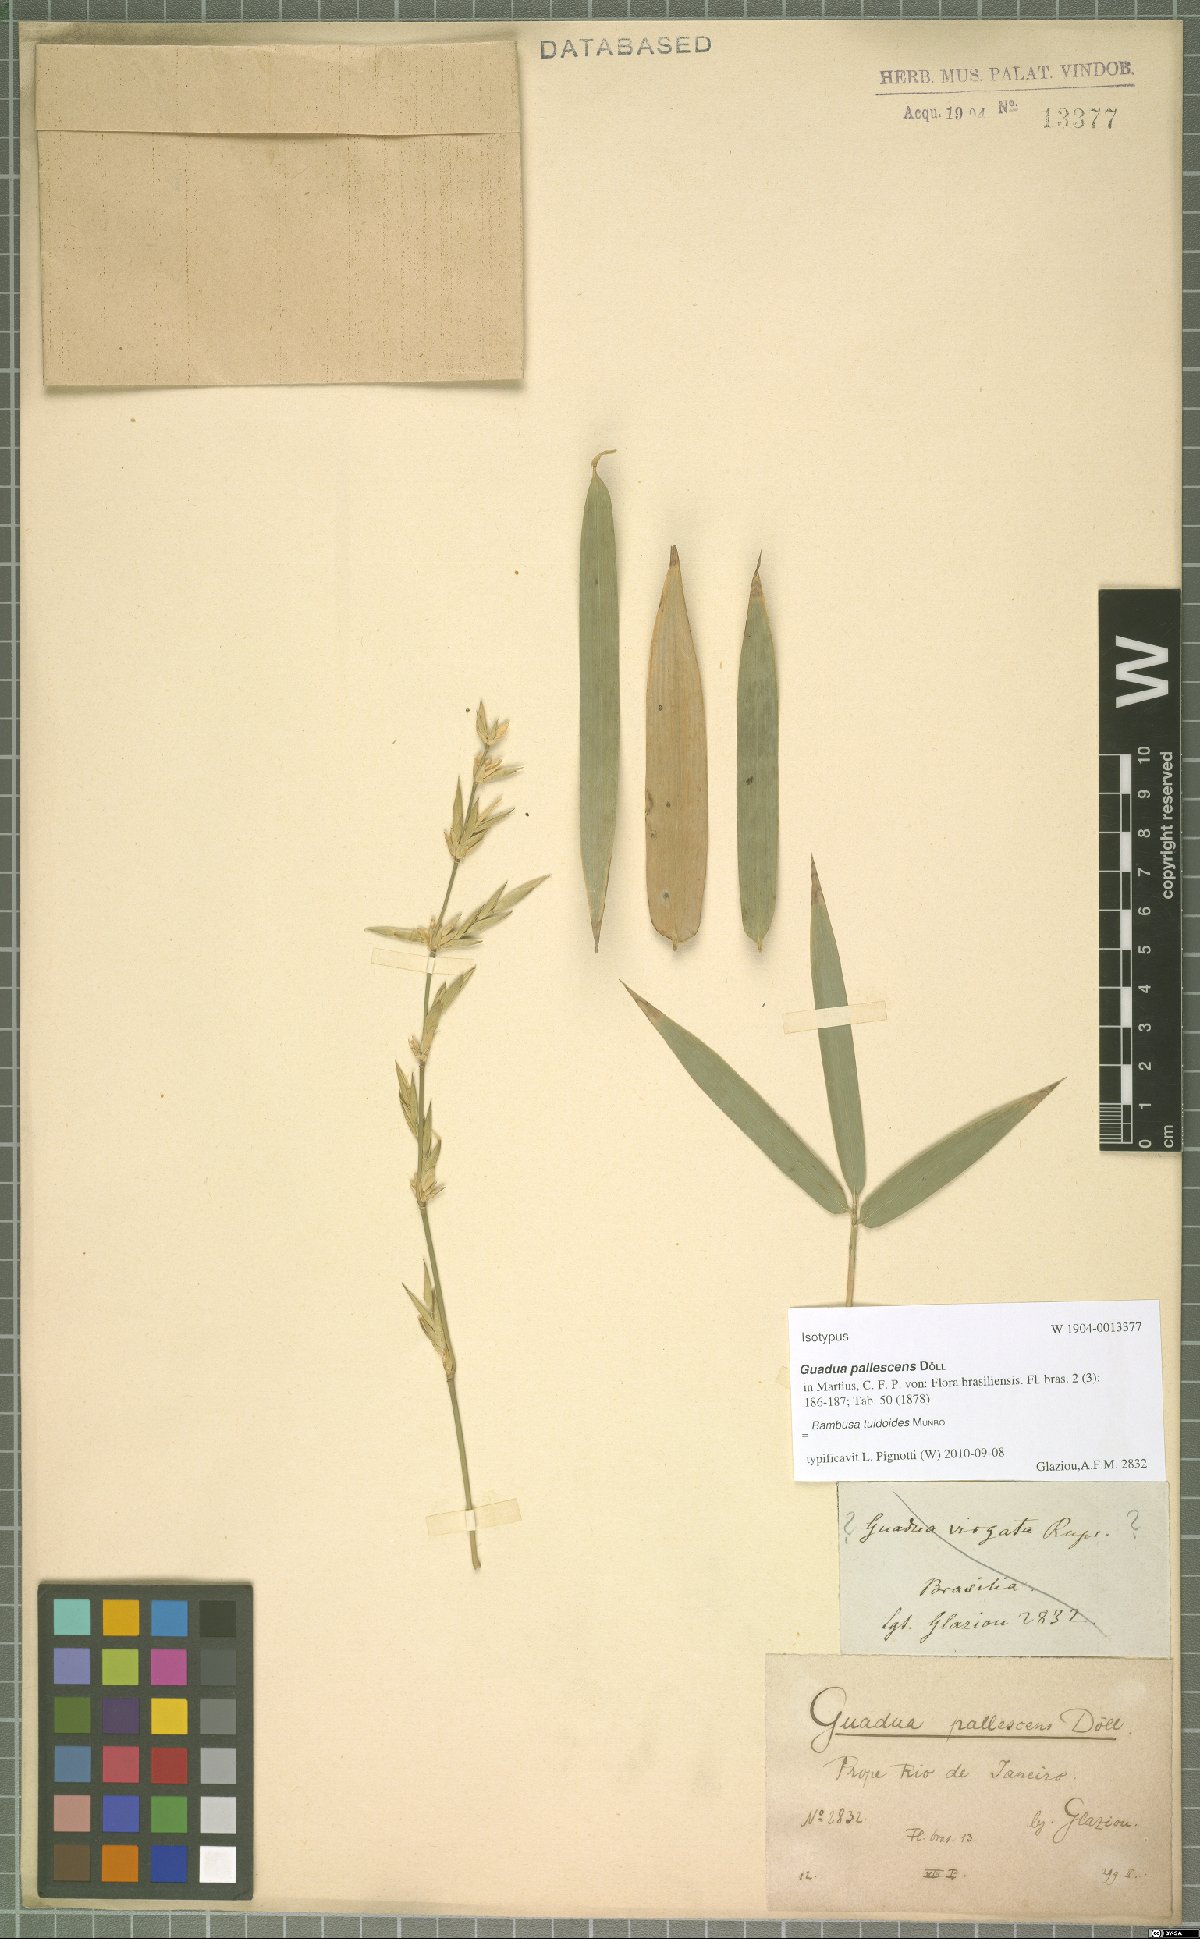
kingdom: Plantae
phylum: Tracheophyta
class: Liliopsida
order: Poales
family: Poaceae
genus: Bambusa
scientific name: Bambusa tuldoides
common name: Verdant bamboo
